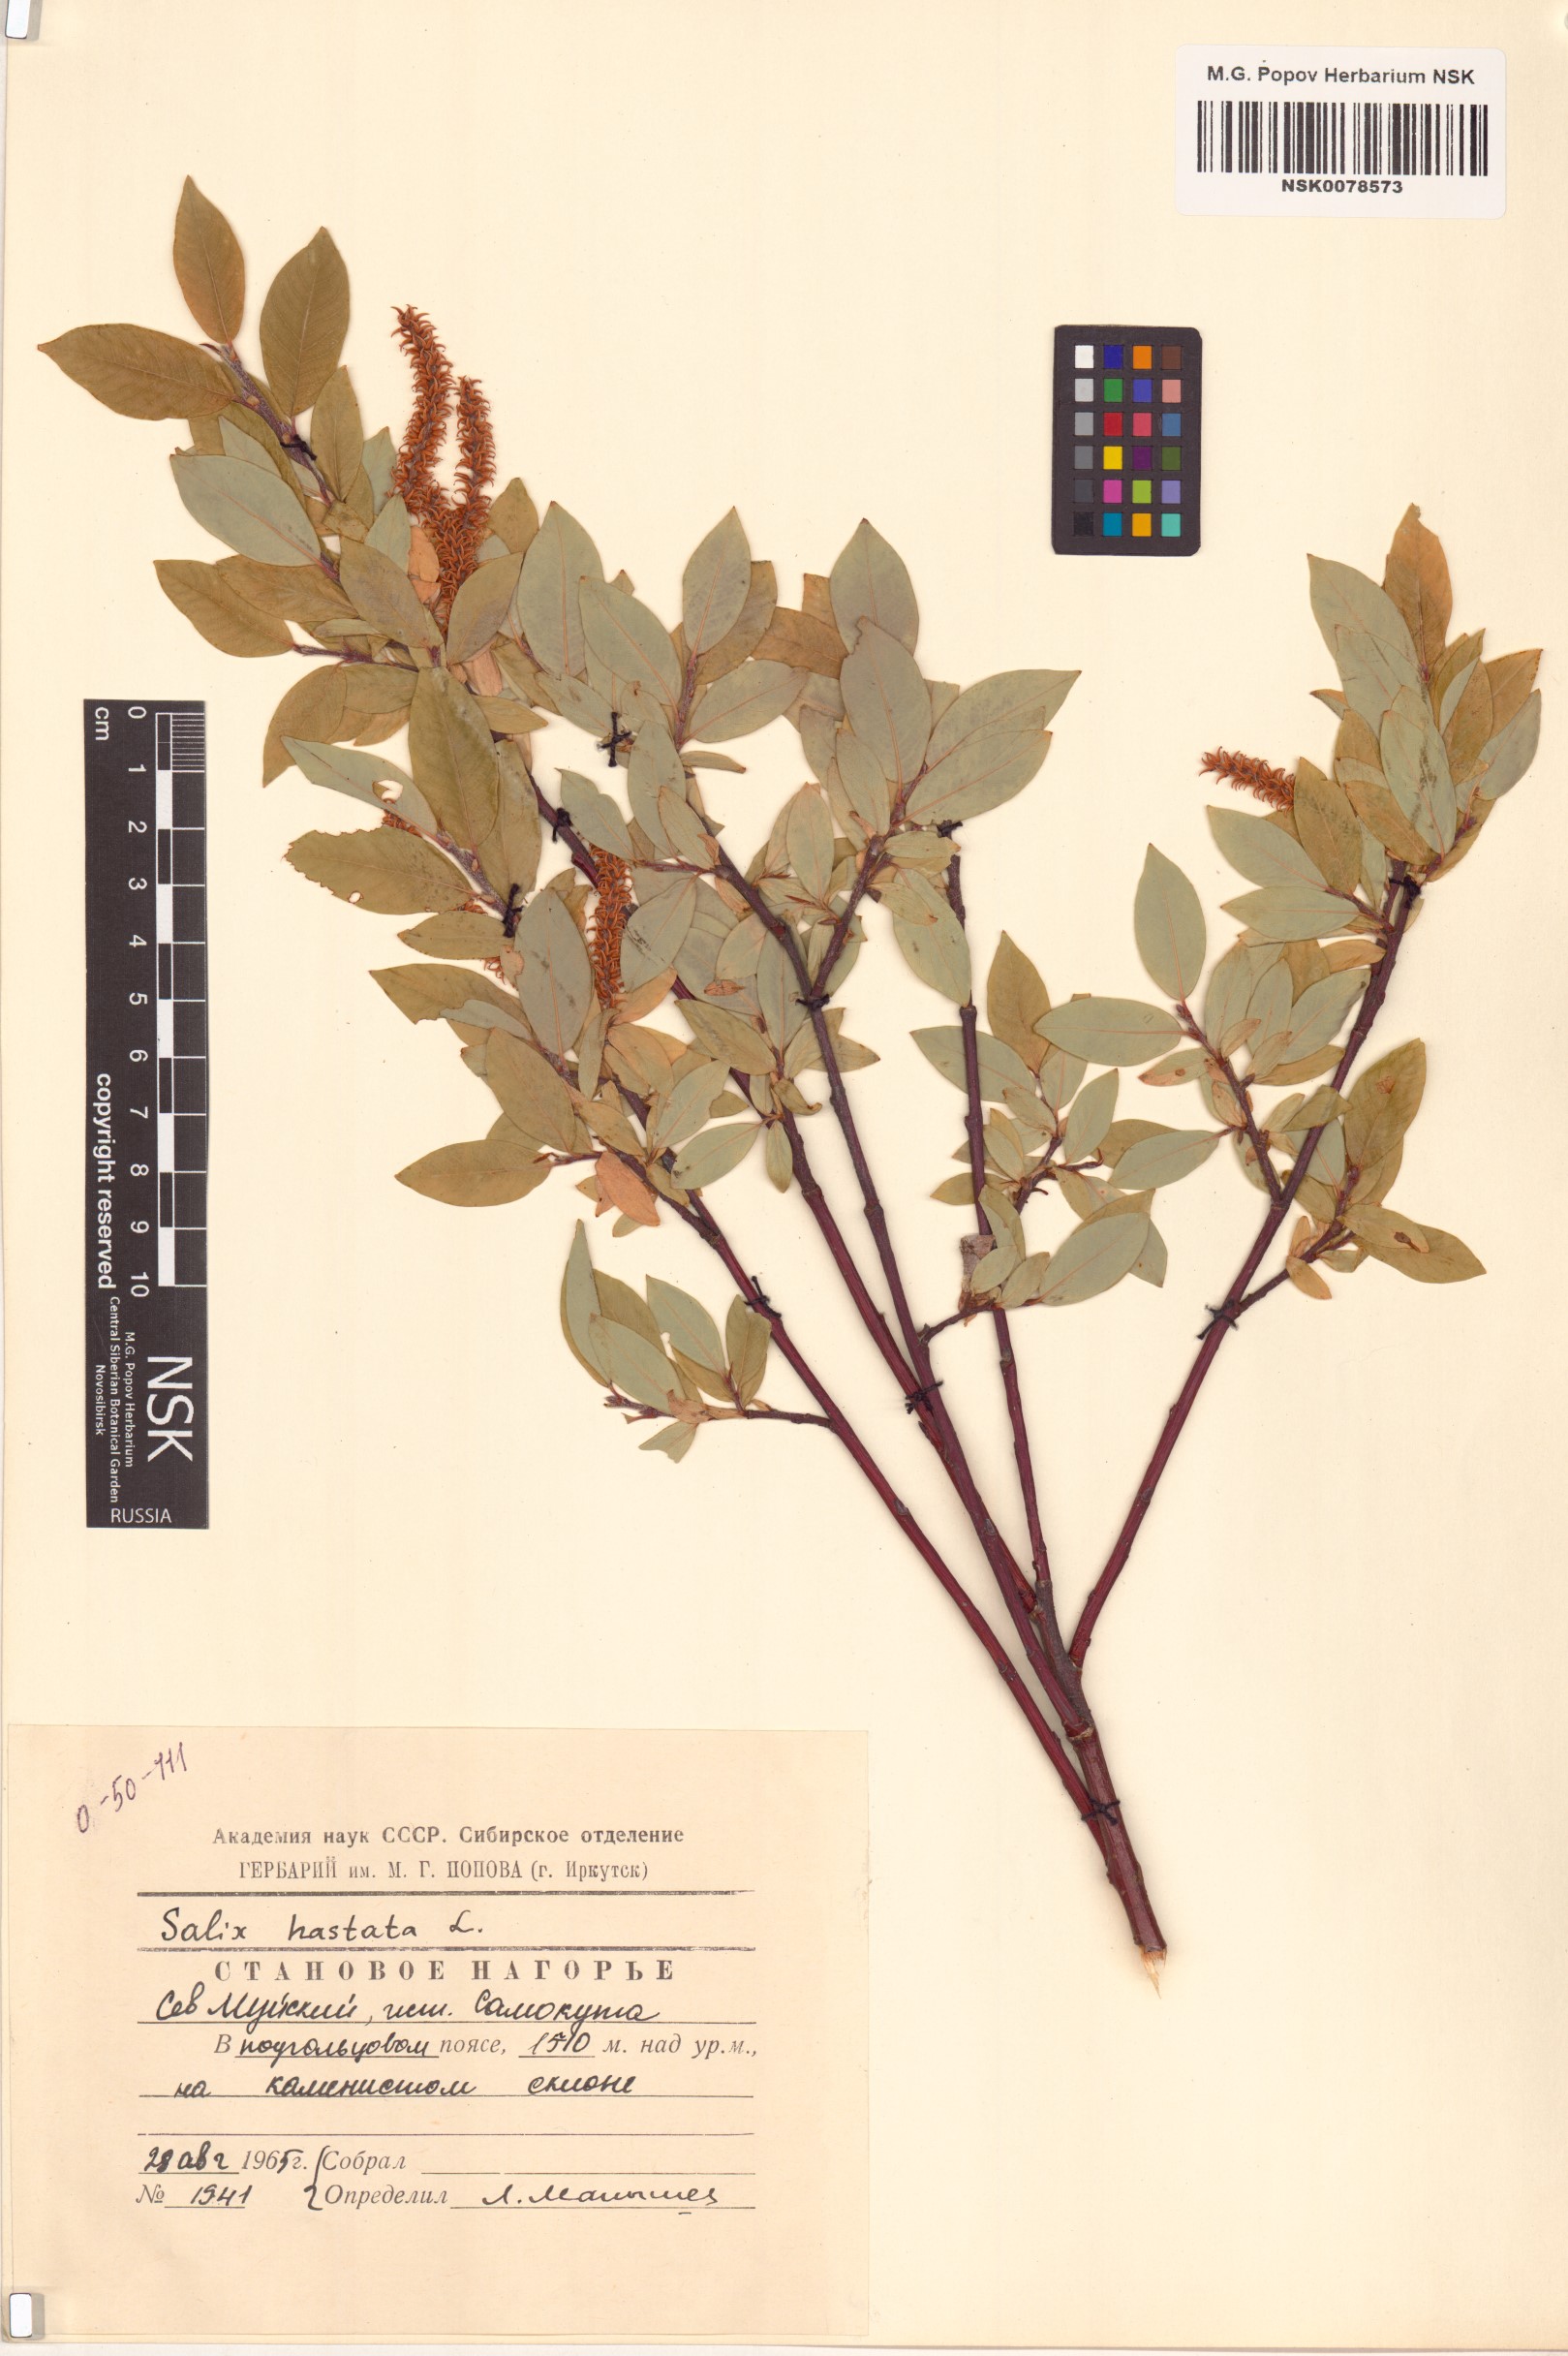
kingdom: Plantae
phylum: Tracheophyta
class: Magnoliopsida
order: Malpighiales
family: Salicaceae
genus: Salix
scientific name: Salix hastata
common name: Halberd willow
